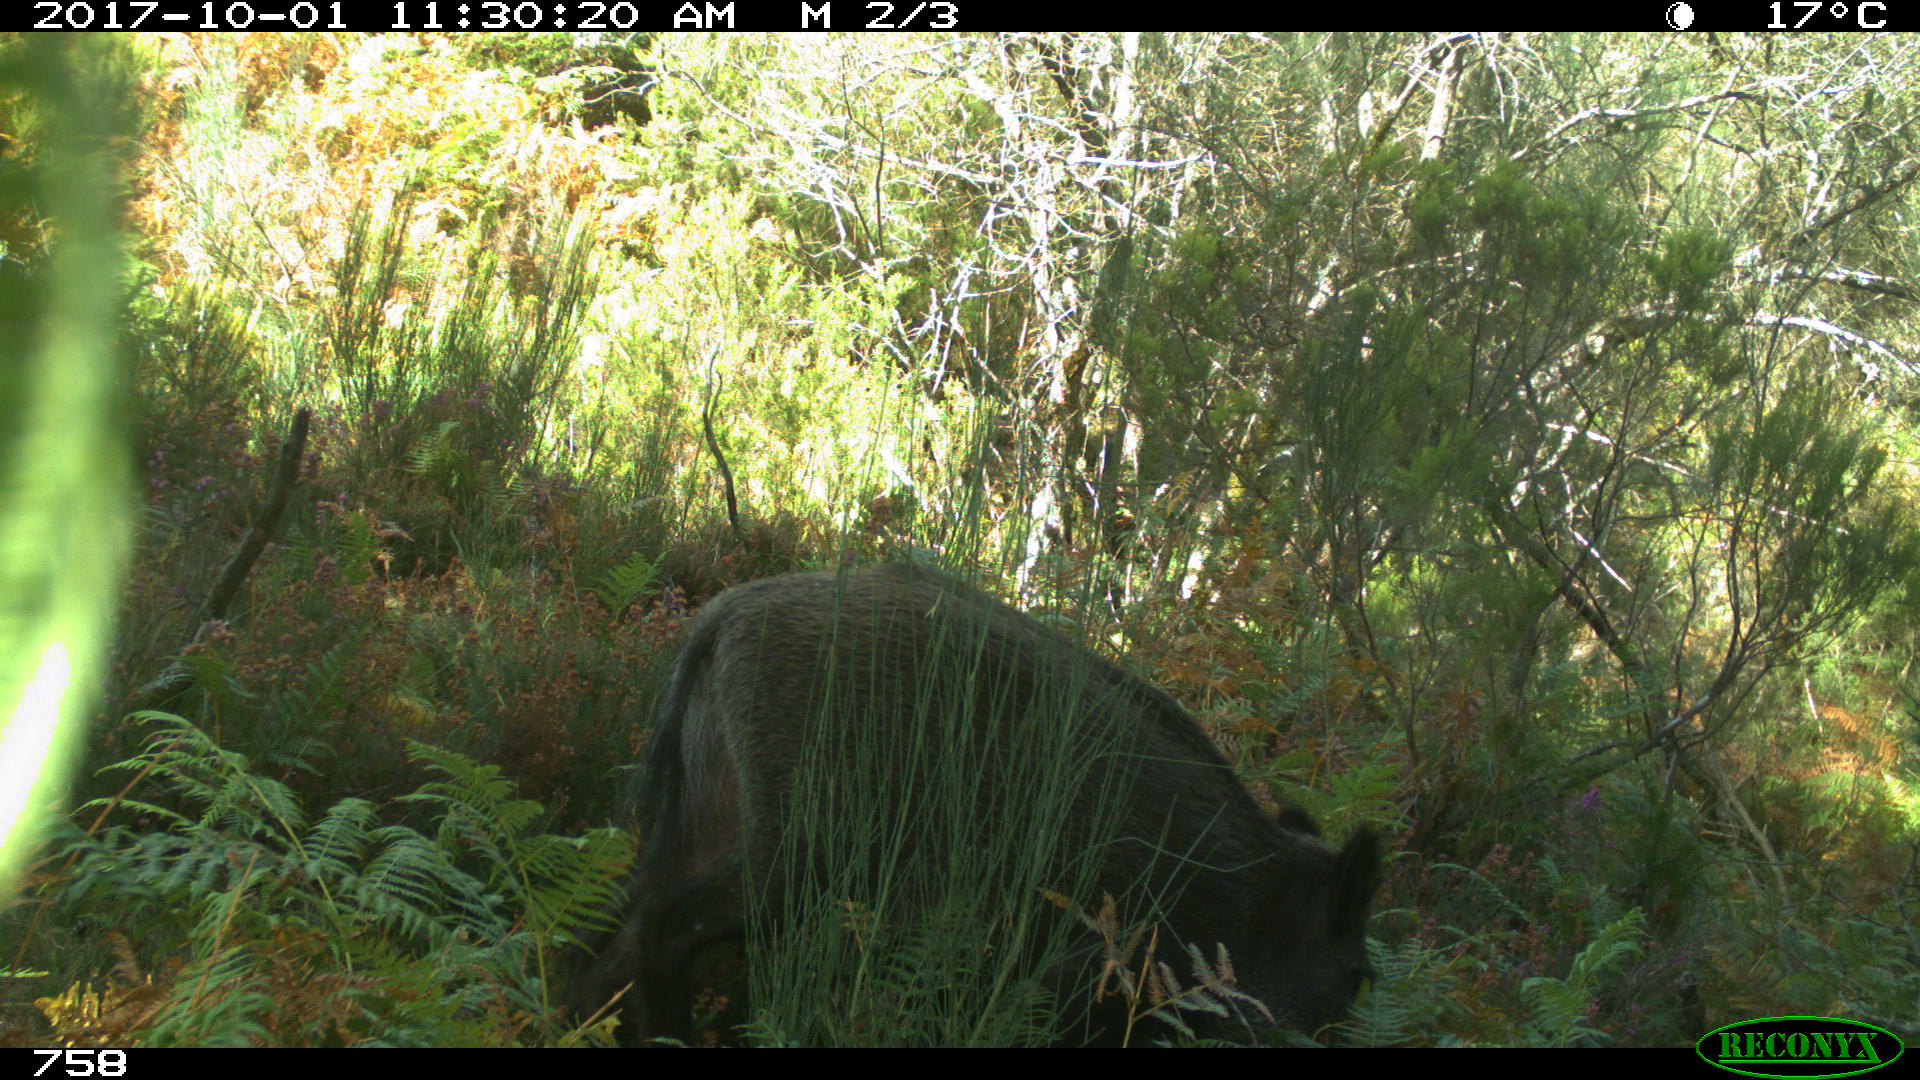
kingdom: Animalia
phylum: Chordata
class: Mammalia
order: Artiodactyla
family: Suidae
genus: Sus
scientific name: Sus scrofa
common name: Wild boar
